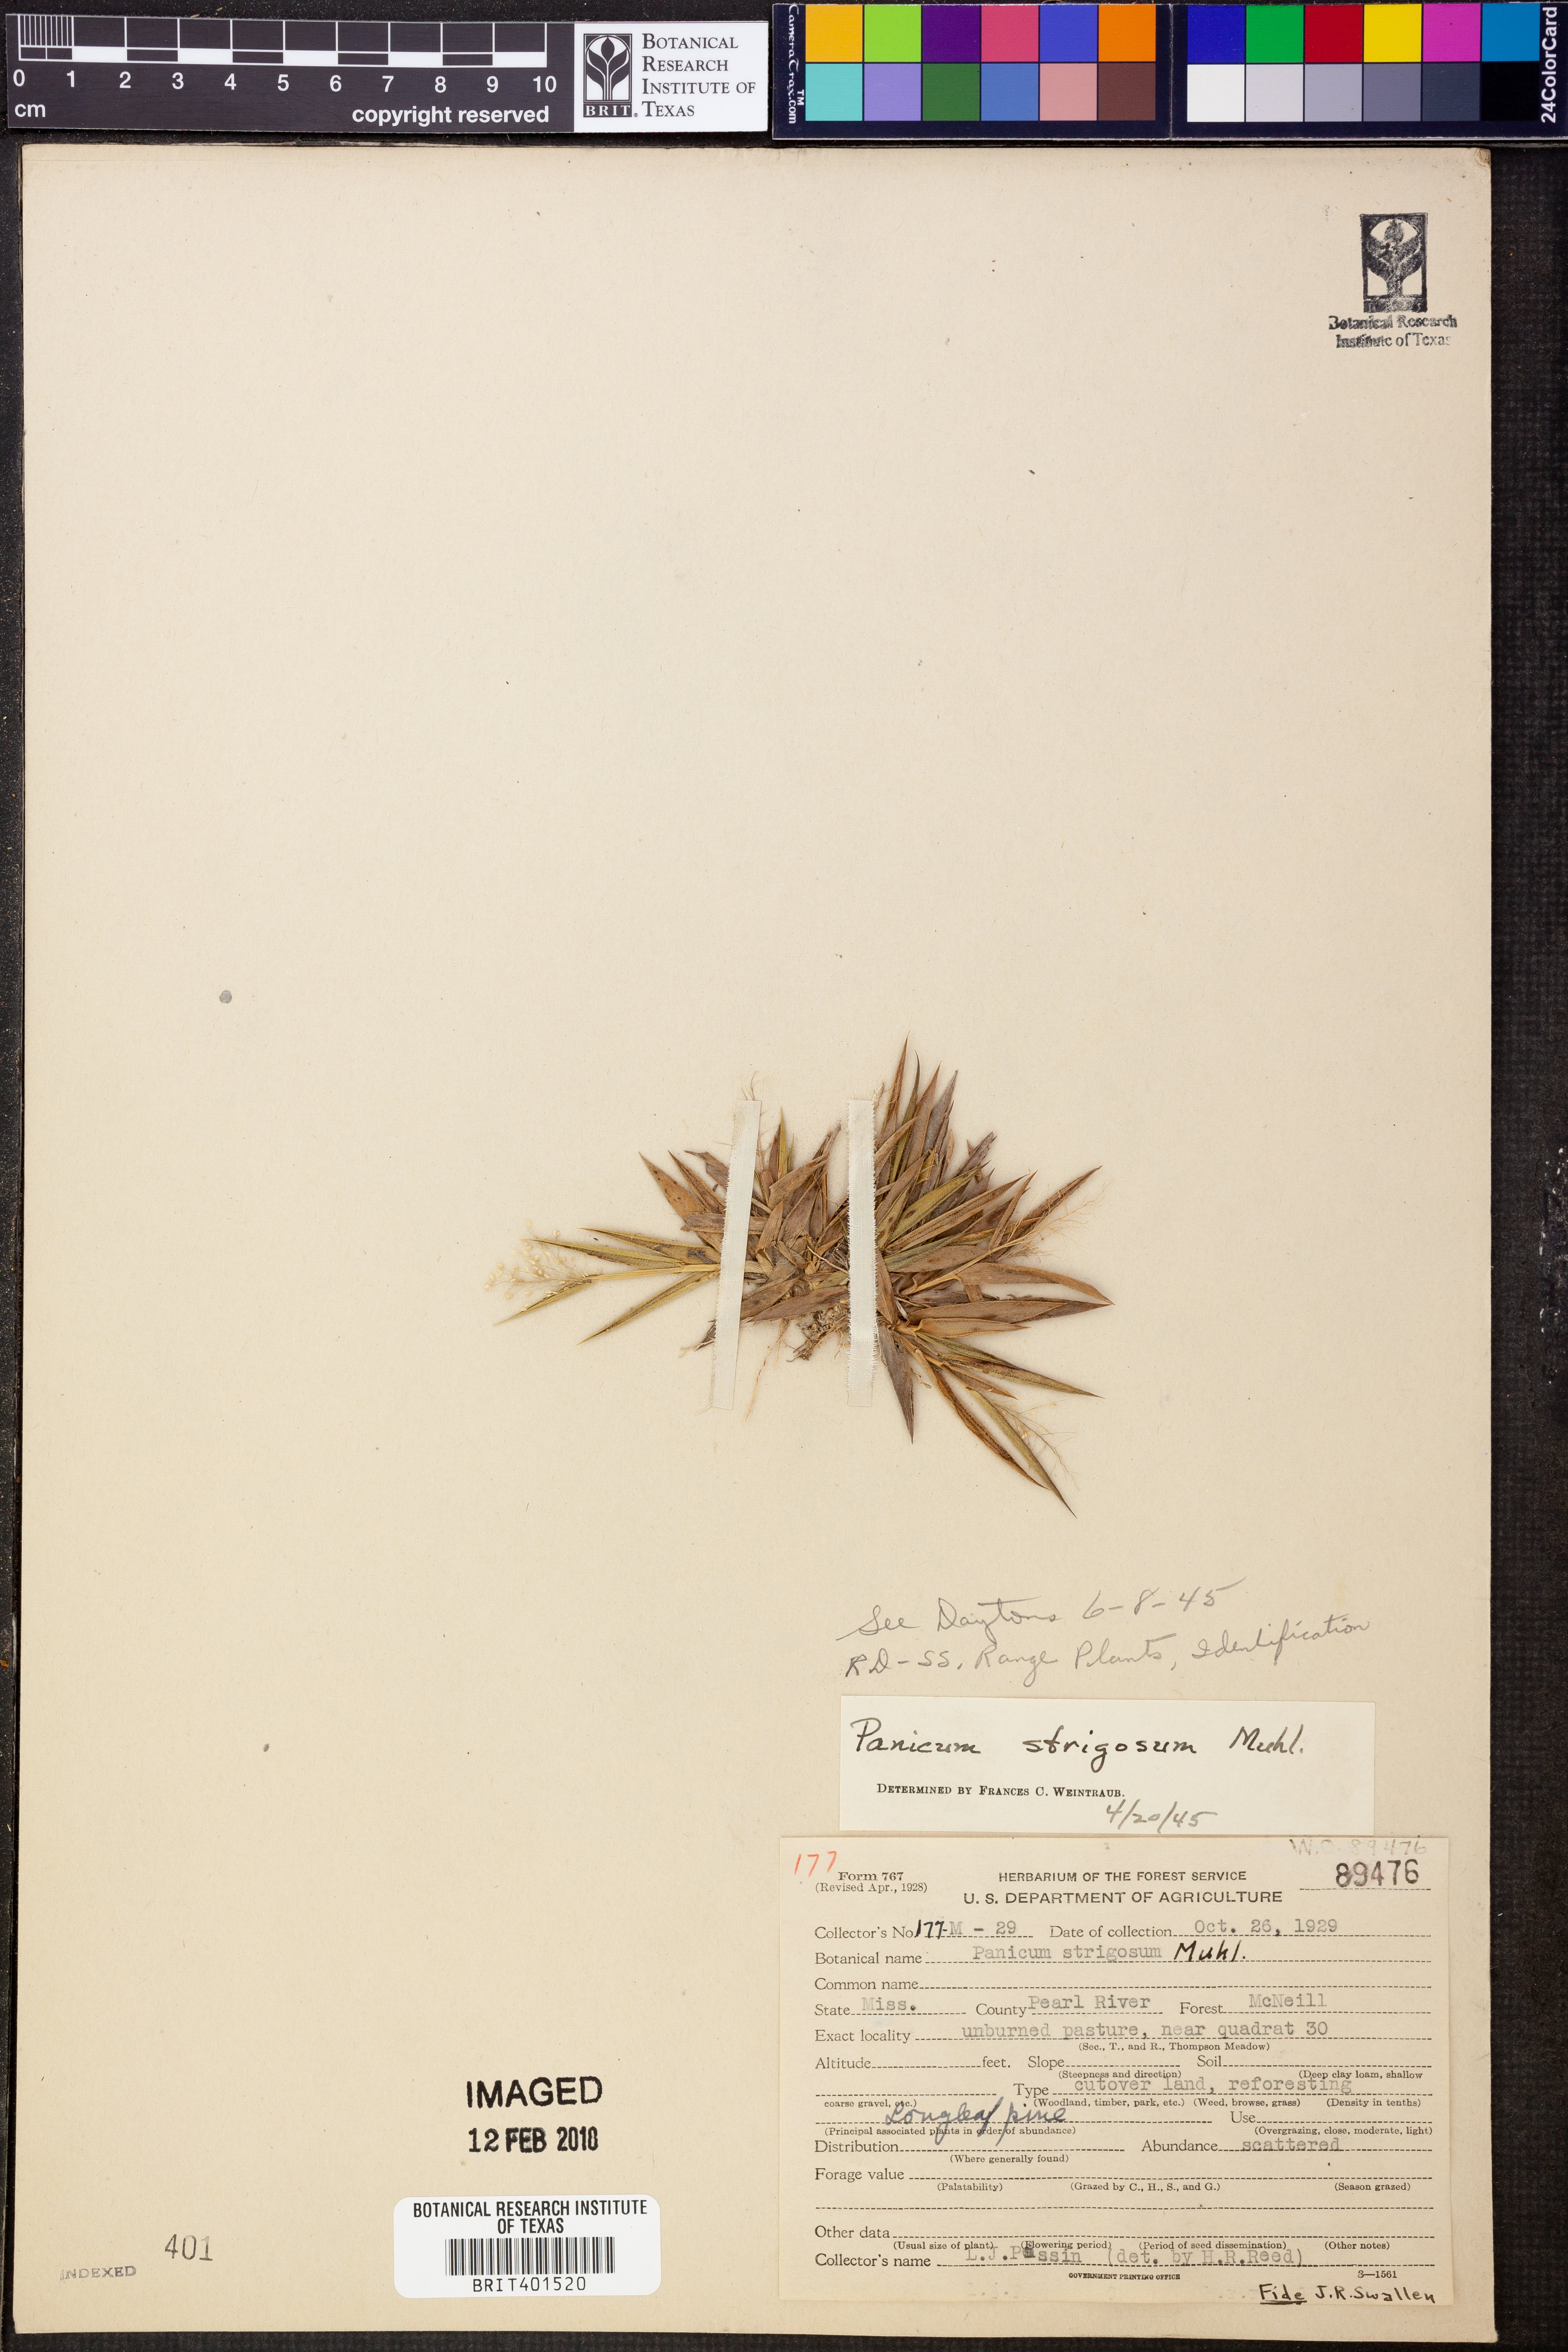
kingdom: Plantae
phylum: Tracheophyta
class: Liliopsida
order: Poales
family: Poaceae
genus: Dichanthelium
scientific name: Dichanthelium strigosum
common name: Cushion-tuft panic grass
